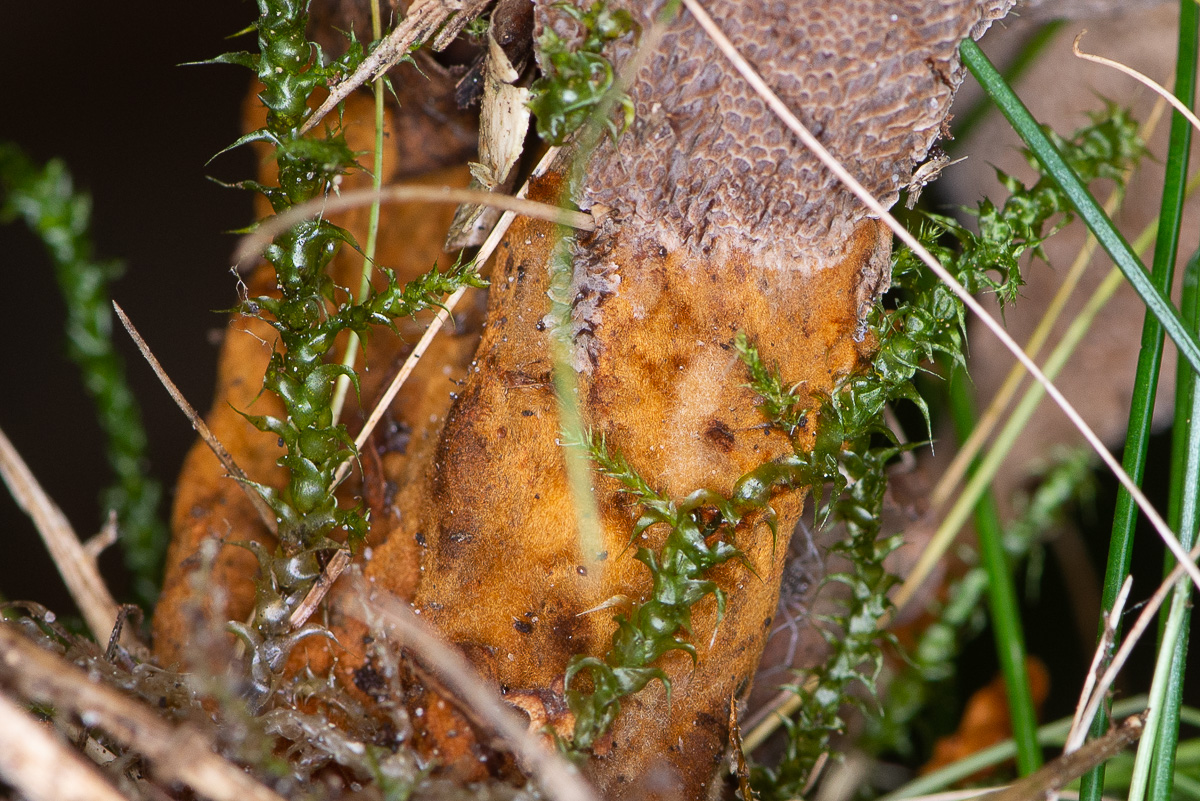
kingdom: Fungi
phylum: Basidiomycota
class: Agaricomycetes
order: Hymenochaetales
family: Hymenochaetaceae
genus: Coltricia
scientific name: Coltricia perennis
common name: almindelig sandporesvamp
